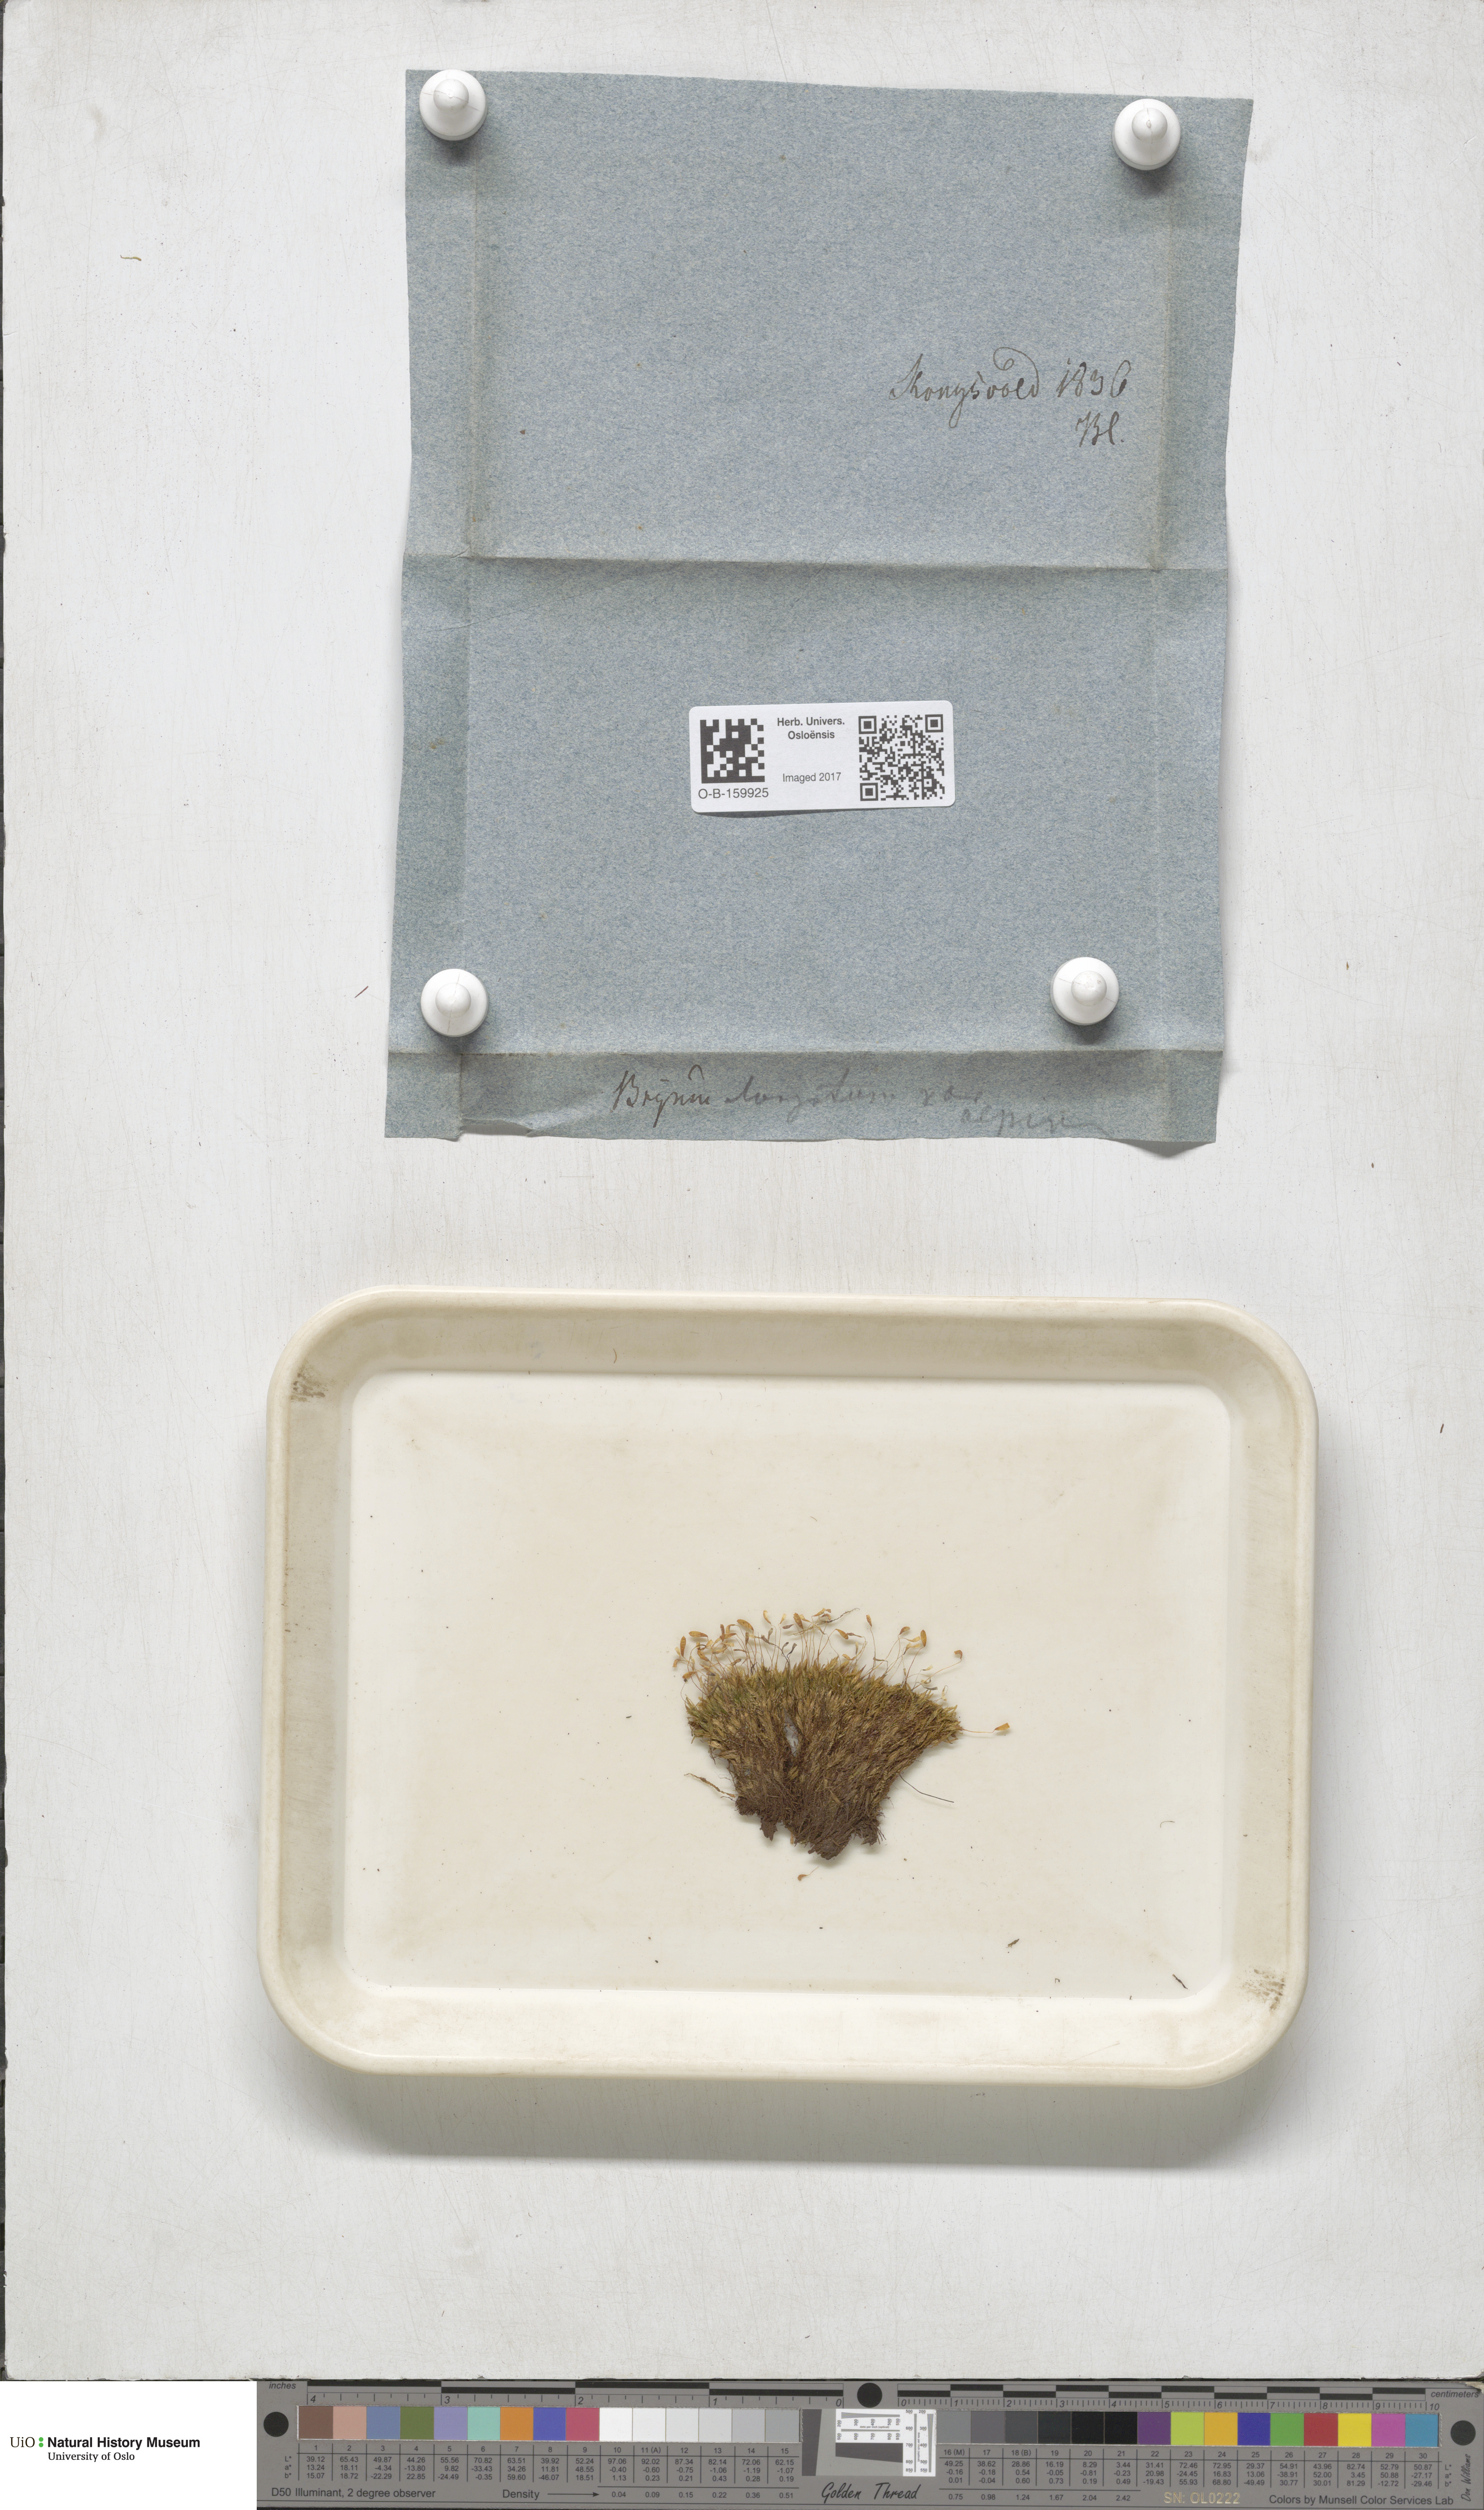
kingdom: Plantae
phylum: Bryophyta
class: Bryopsida
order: Bryales
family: Mniaceae
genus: Pohlia
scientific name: Pohlia elongata
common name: Long-fruited thread-moss
